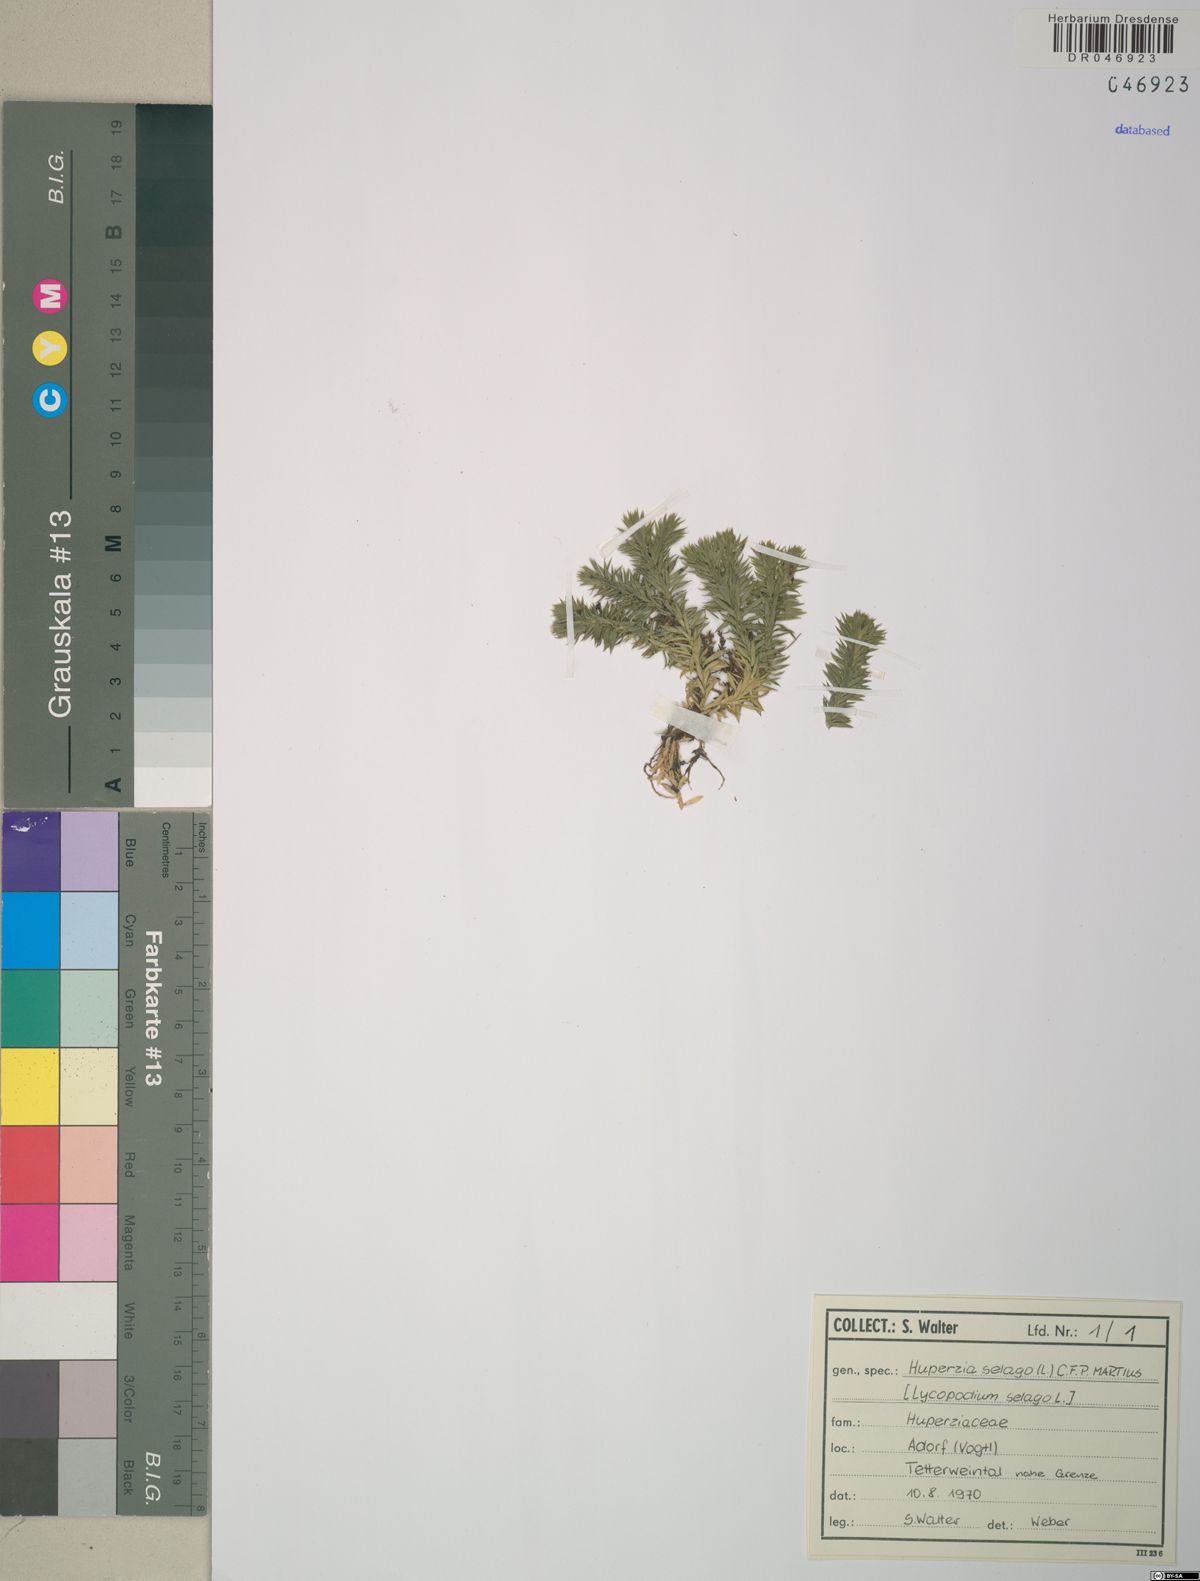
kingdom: Plantae
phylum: Tracheophyta
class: Lycopodiopsida
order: Lycopodiales
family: Lycopodiaceae
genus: Huperzia
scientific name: Huperzia selago
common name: Northern firmoss
